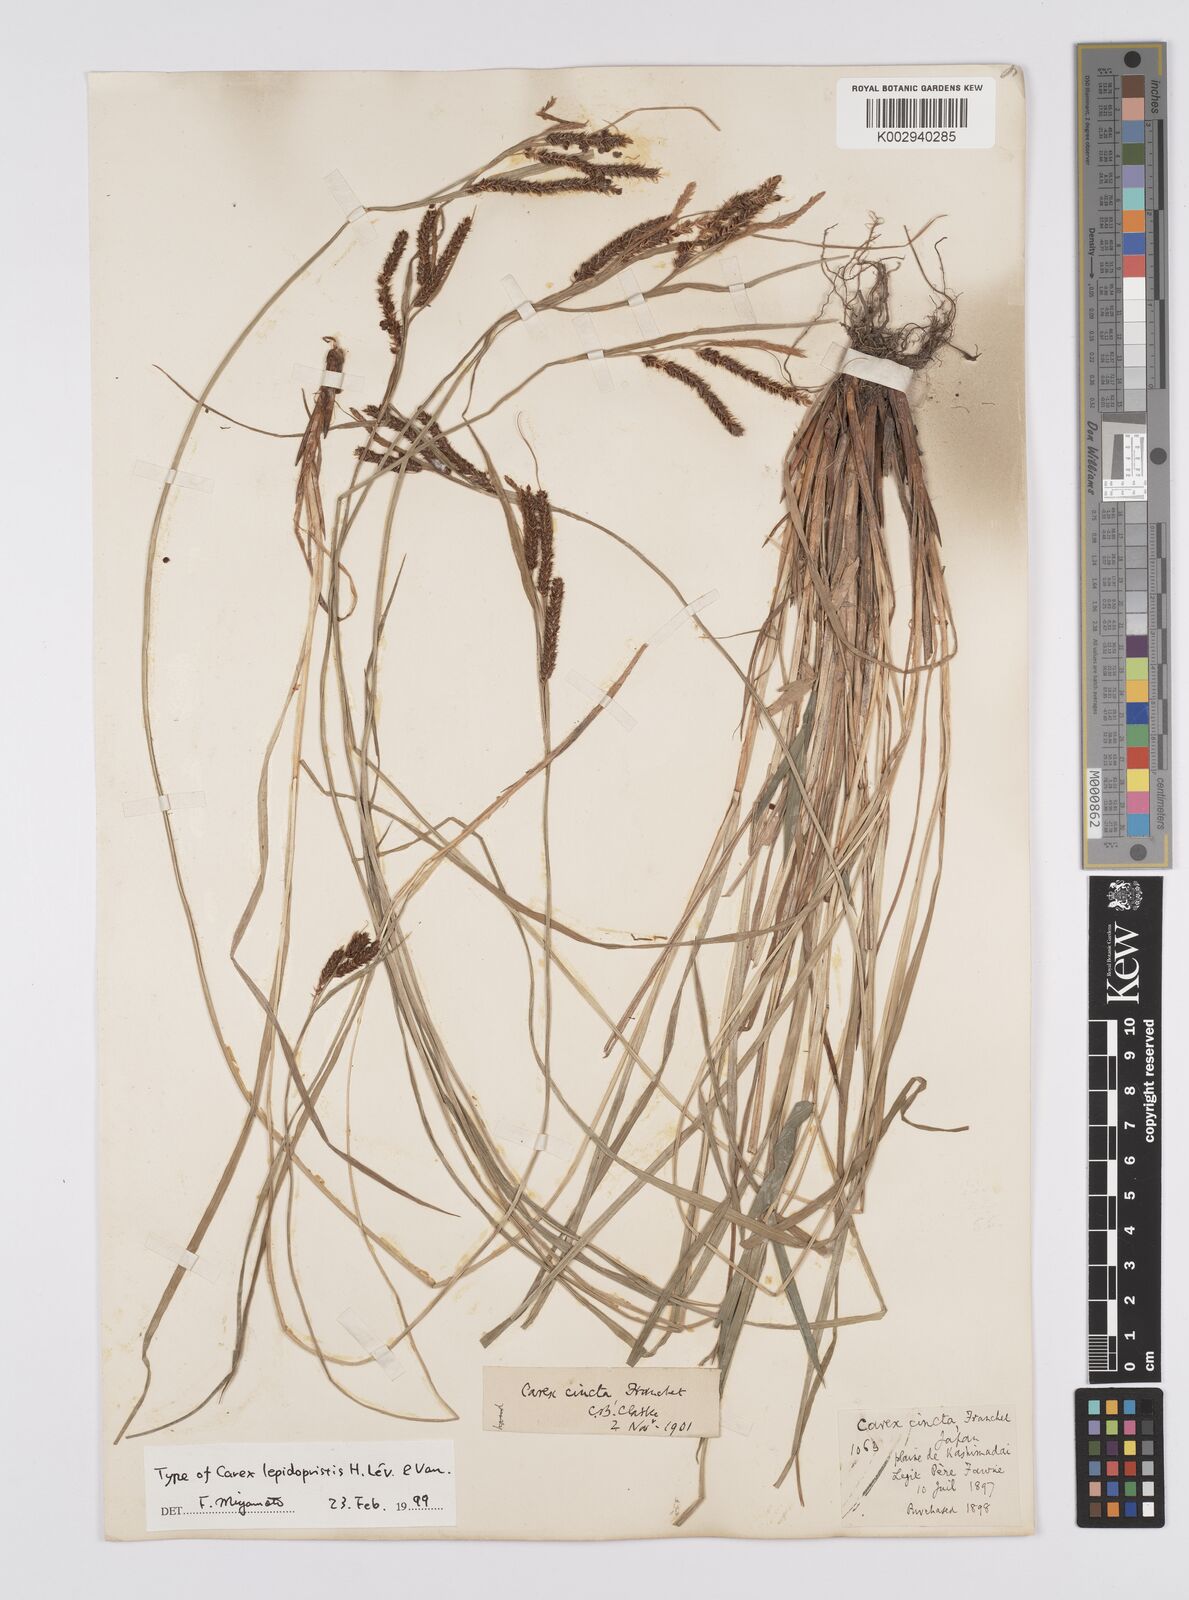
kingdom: Plantae
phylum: Tracheophyta
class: Liliopsida
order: Poales
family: Cyperaceae
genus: Carex
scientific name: Carex phacota
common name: Lakeshore sedge
